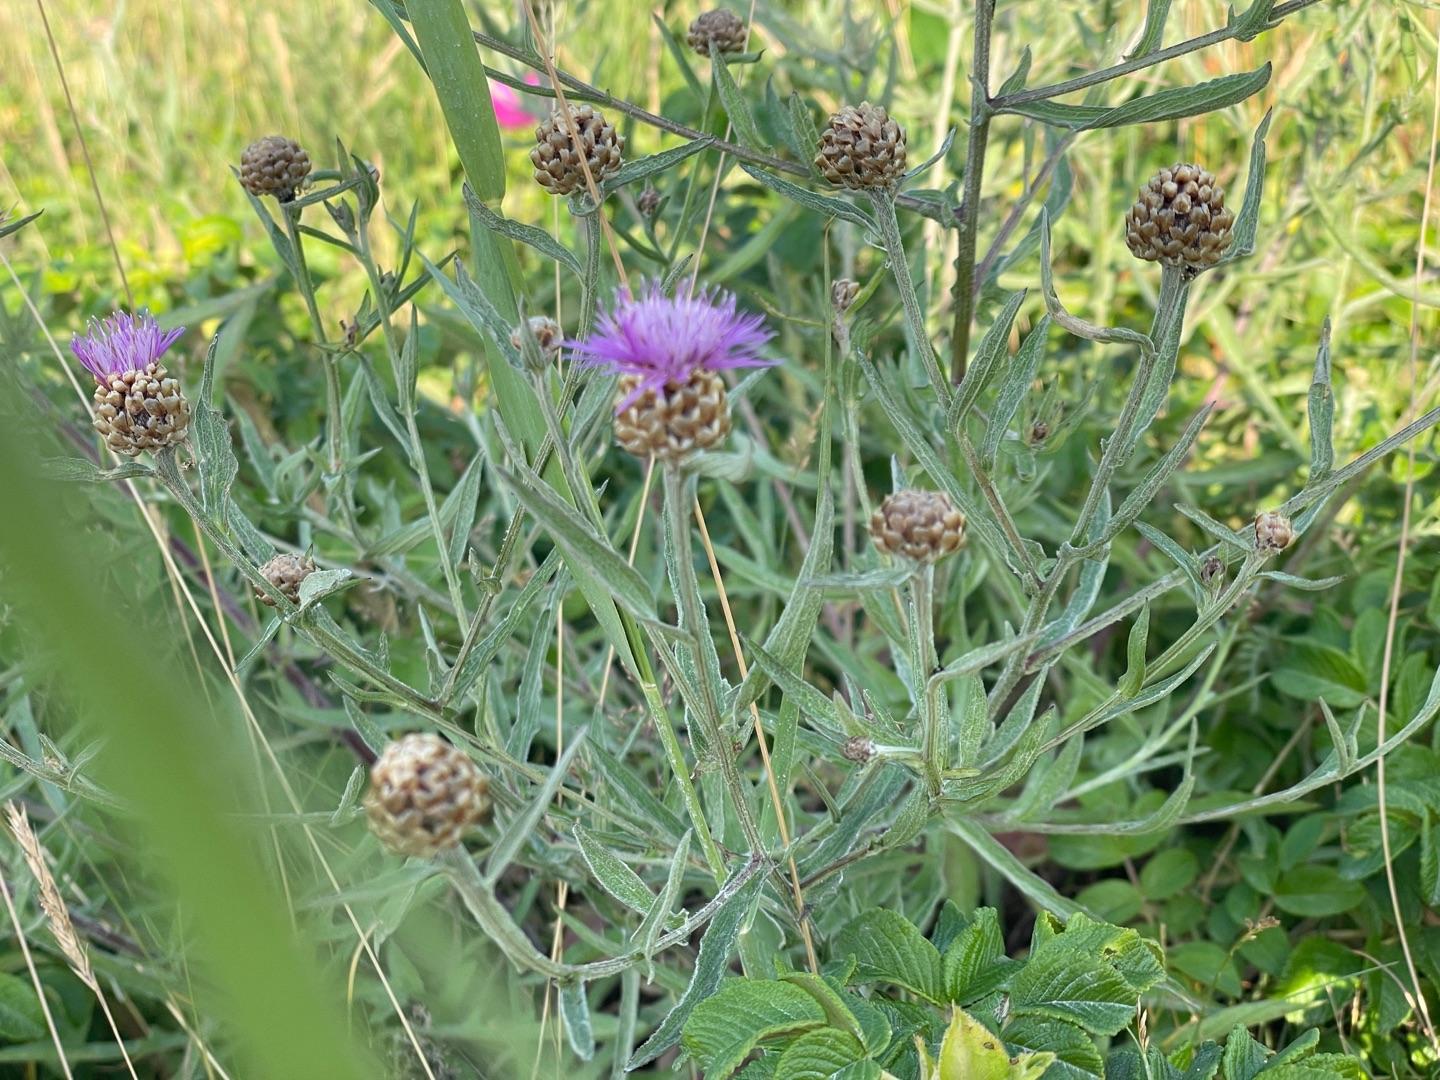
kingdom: Plantae
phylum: Tracheophyta
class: Magnoliopsida
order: Asterales
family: Asteraceae
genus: Centaurea
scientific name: Centaurea jacea
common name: Almindelig knopurt
